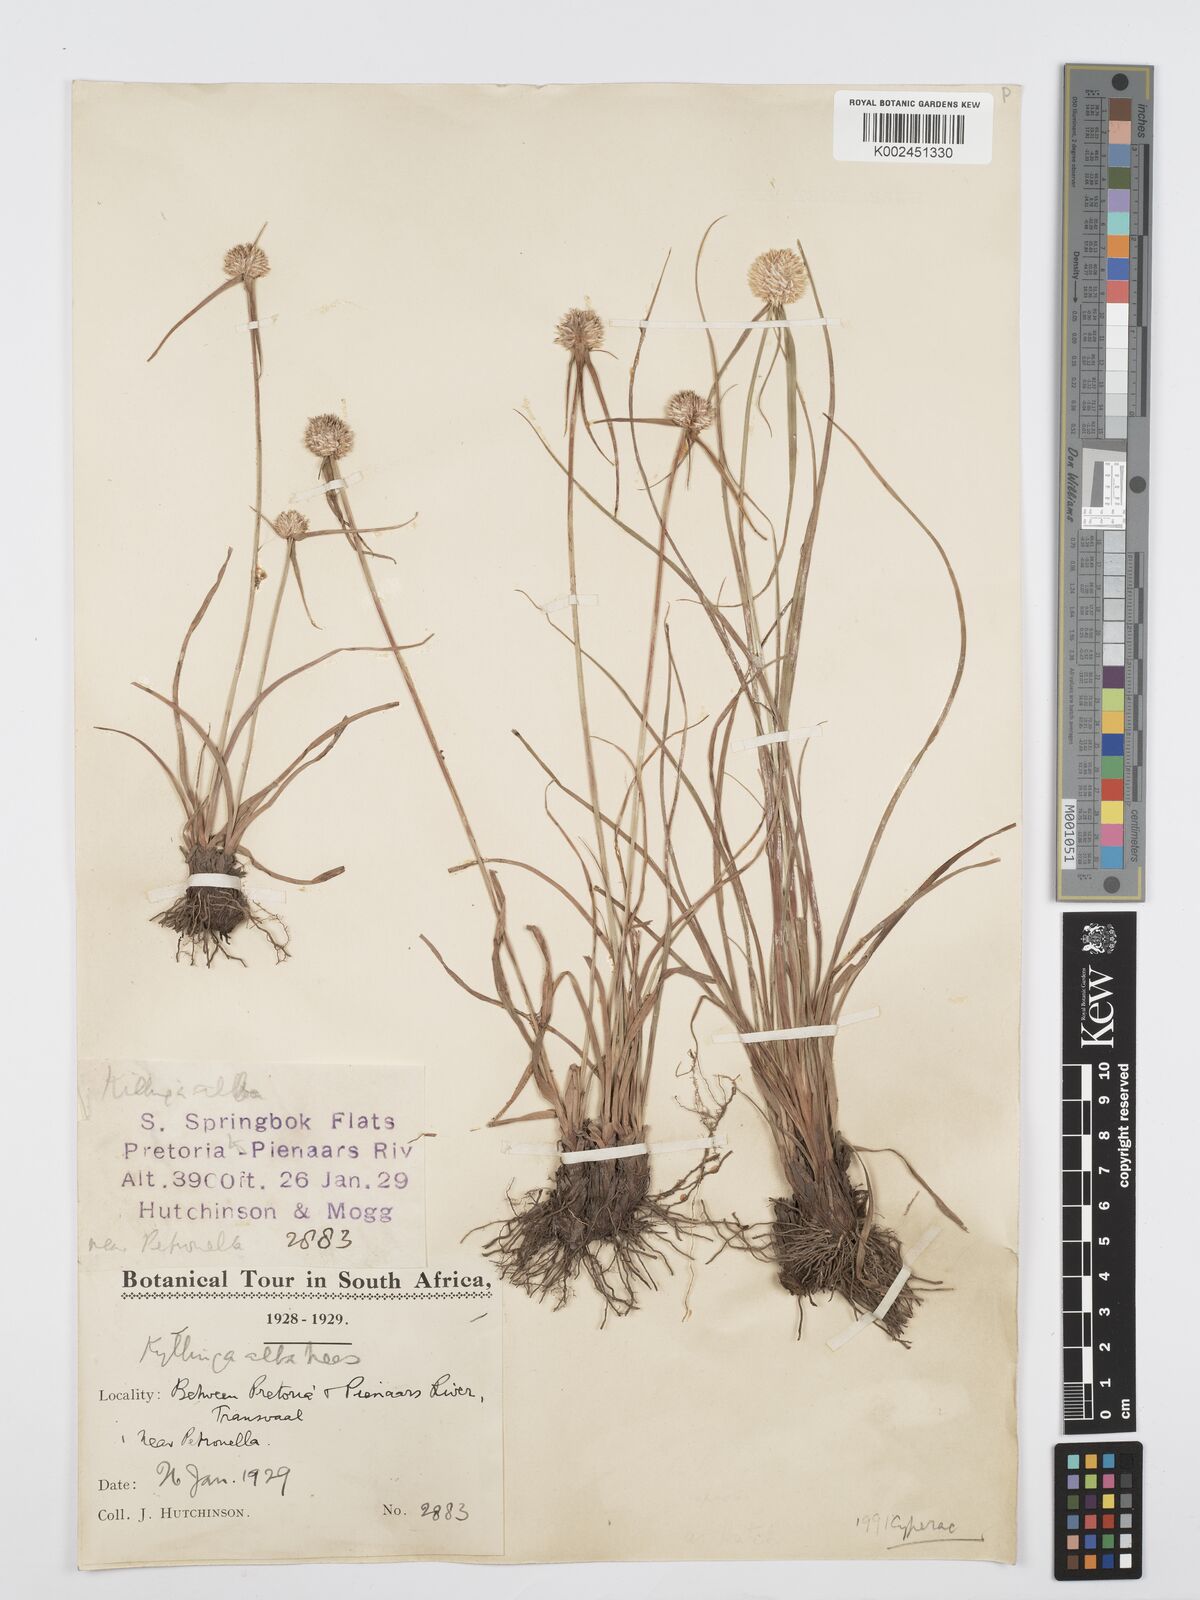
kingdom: Plantae
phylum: Tracheophyta
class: Liliopsida
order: Poales
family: Cyperaceae
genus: Cyperus
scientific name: Cyperus
